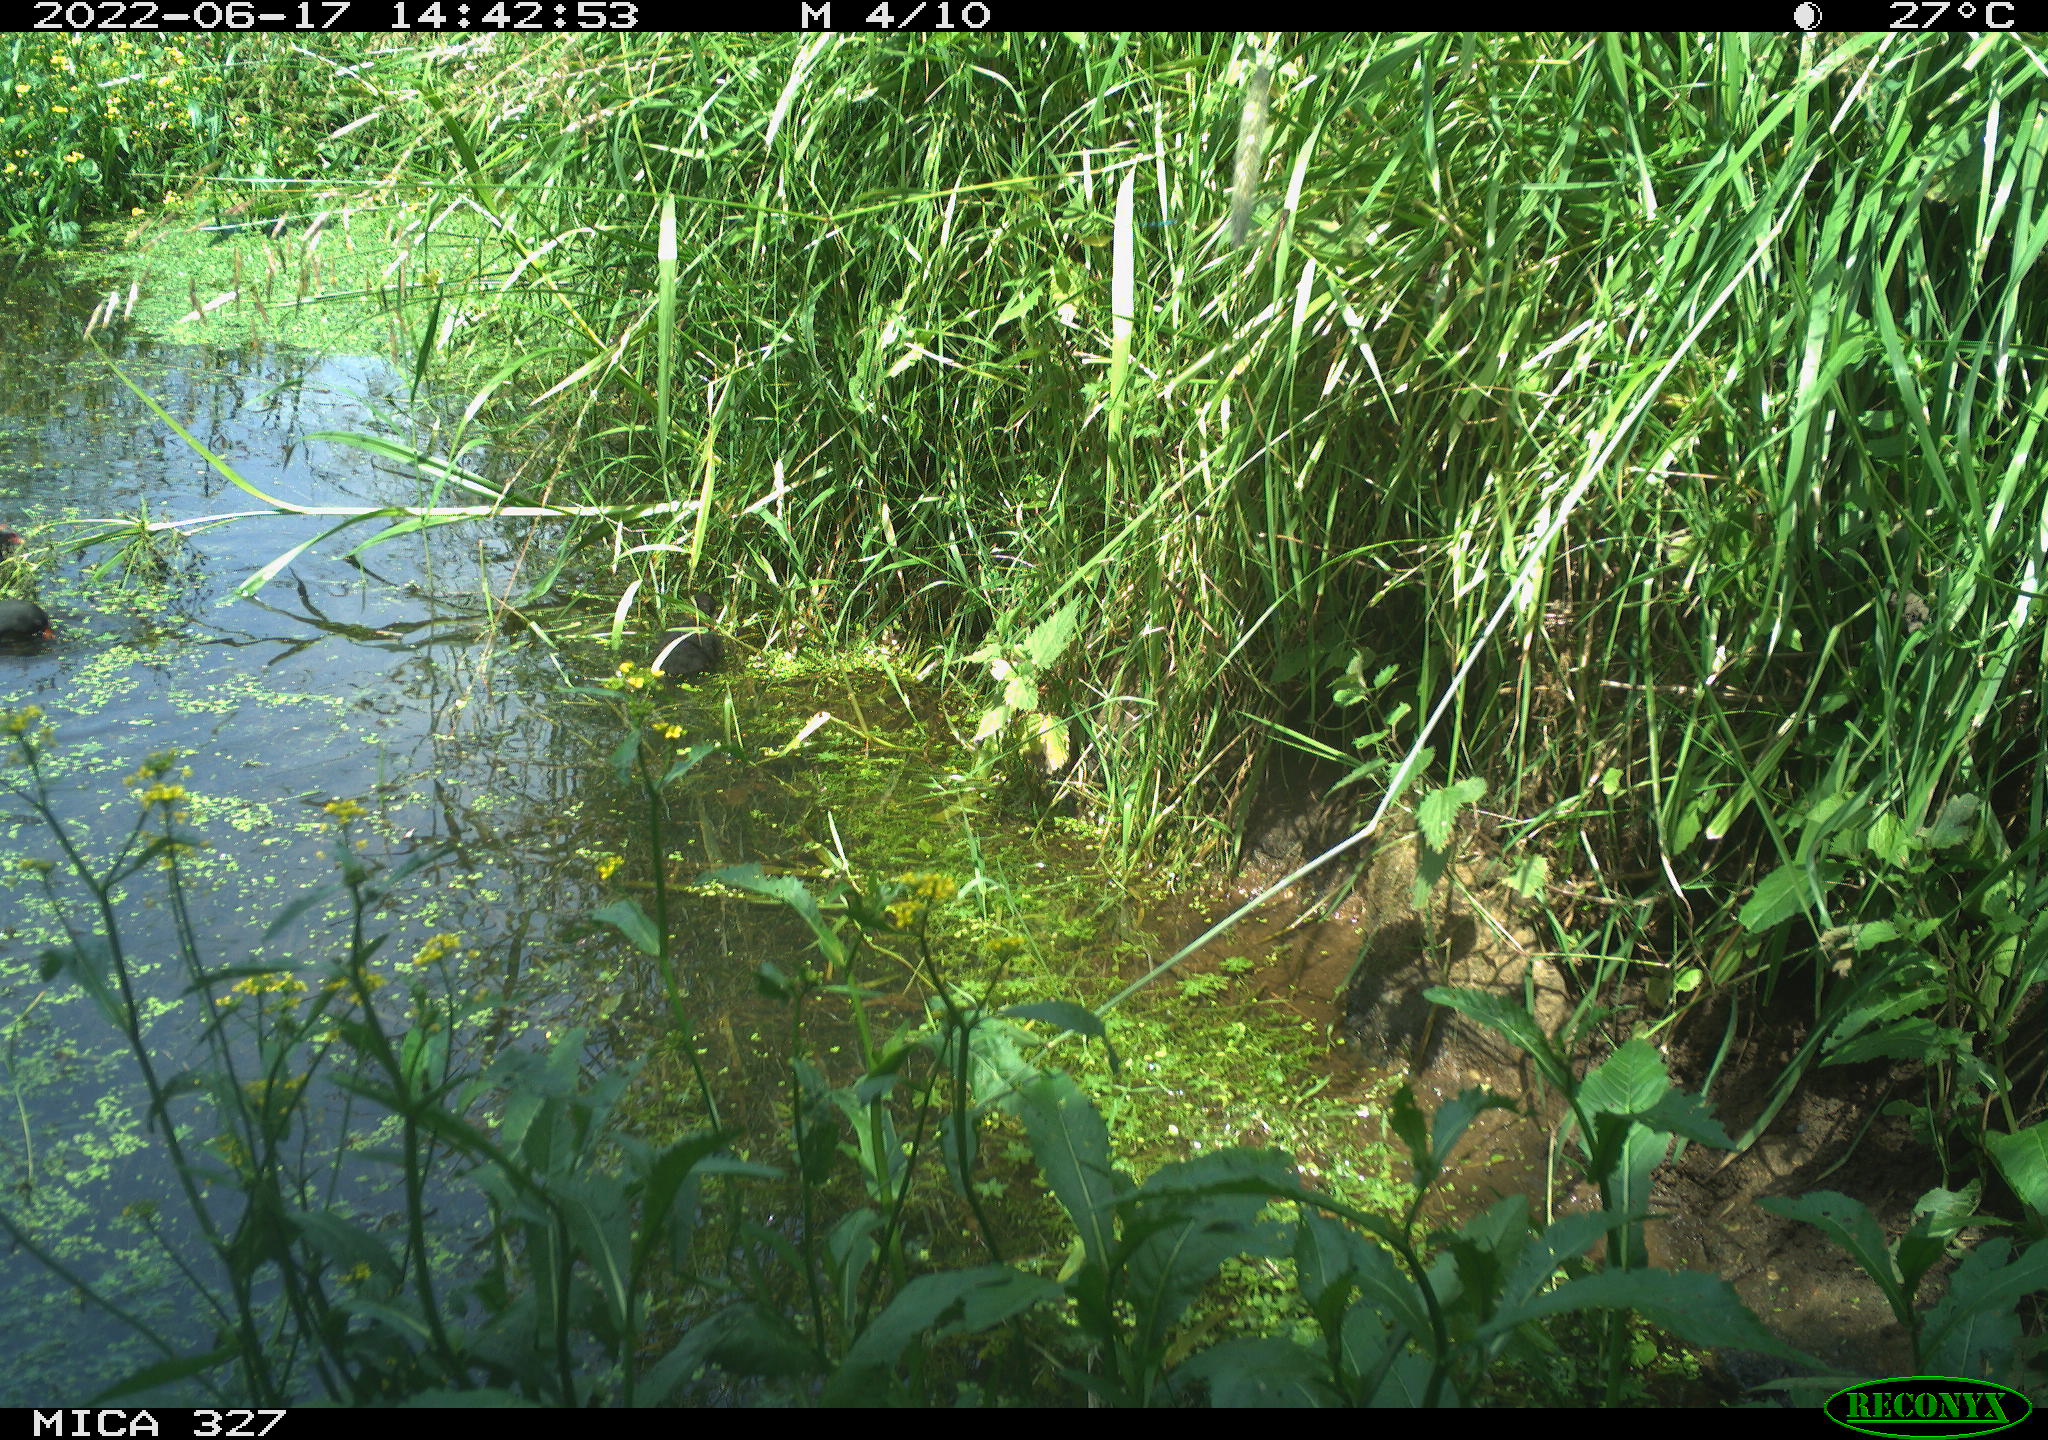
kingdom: Animalia
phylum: Chordata
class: Aves
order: Gruiformes
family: Rallidae
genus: Gallinula
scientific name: Gallinula chloropus
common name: Common moorhen
